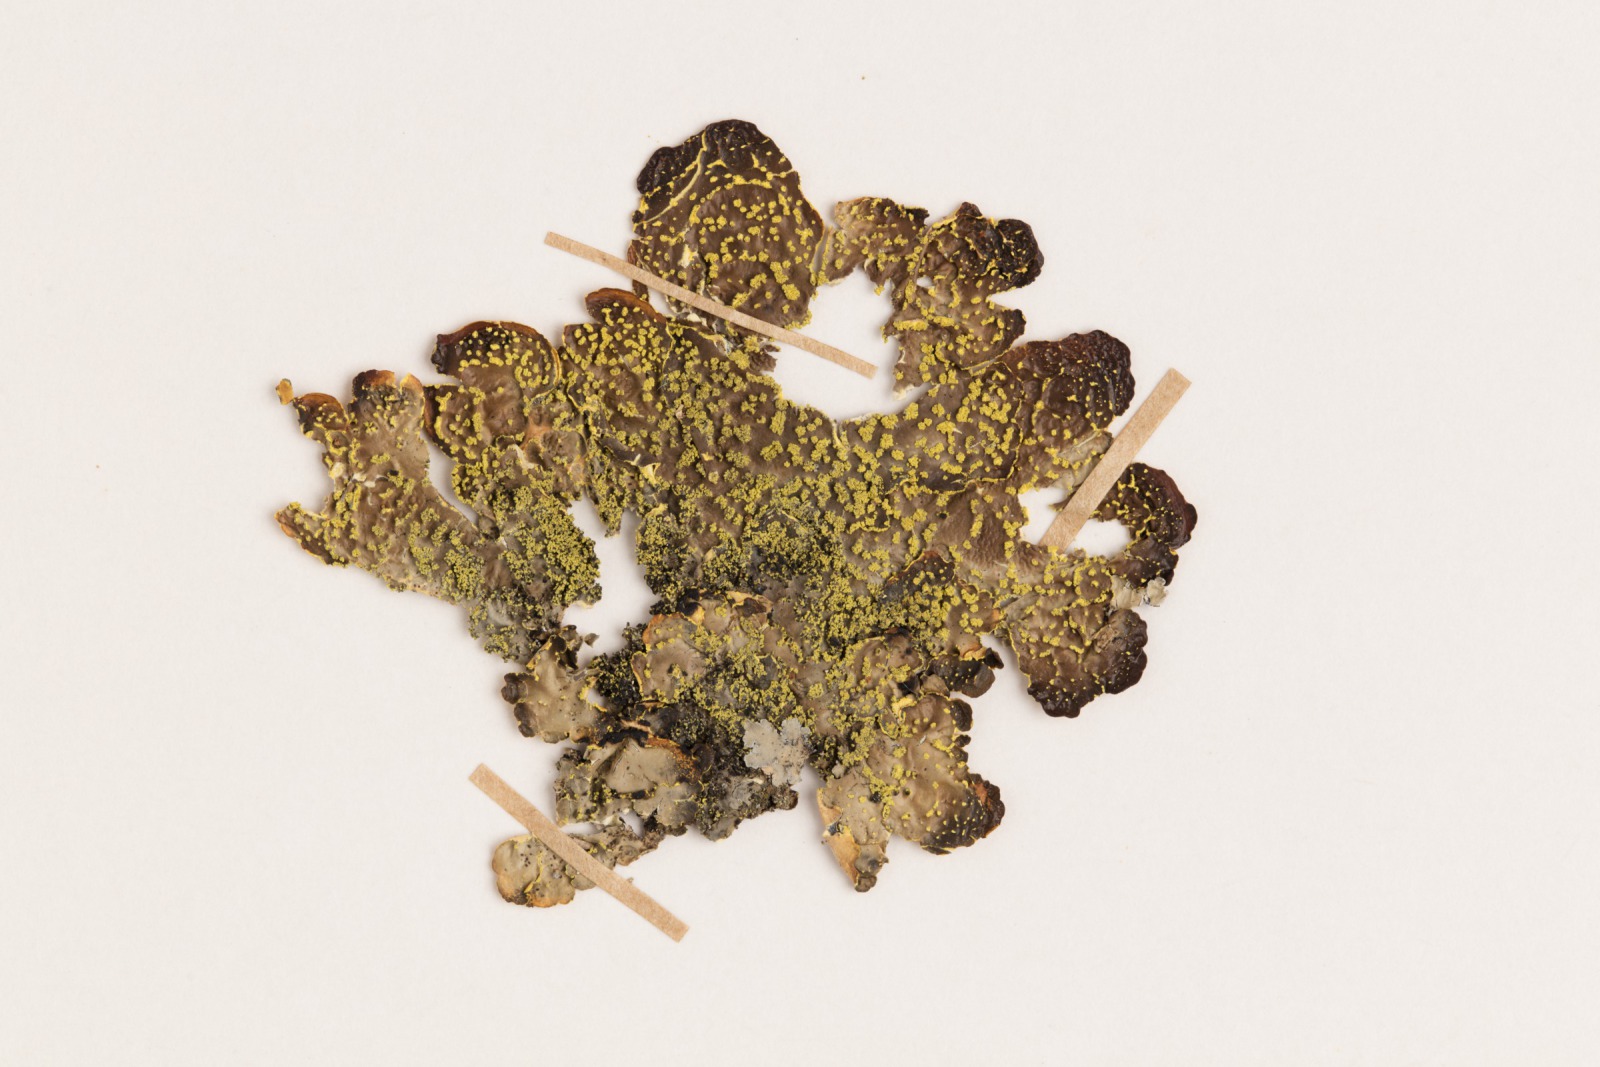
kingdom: Fungi
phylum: Ascomycota
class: Lecanoromycetes
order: Peltigerales
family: Lobariaceae
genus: Pseudocyphellaria
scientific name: Pseudocyphellaria crocata
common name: Golden specklebelly
